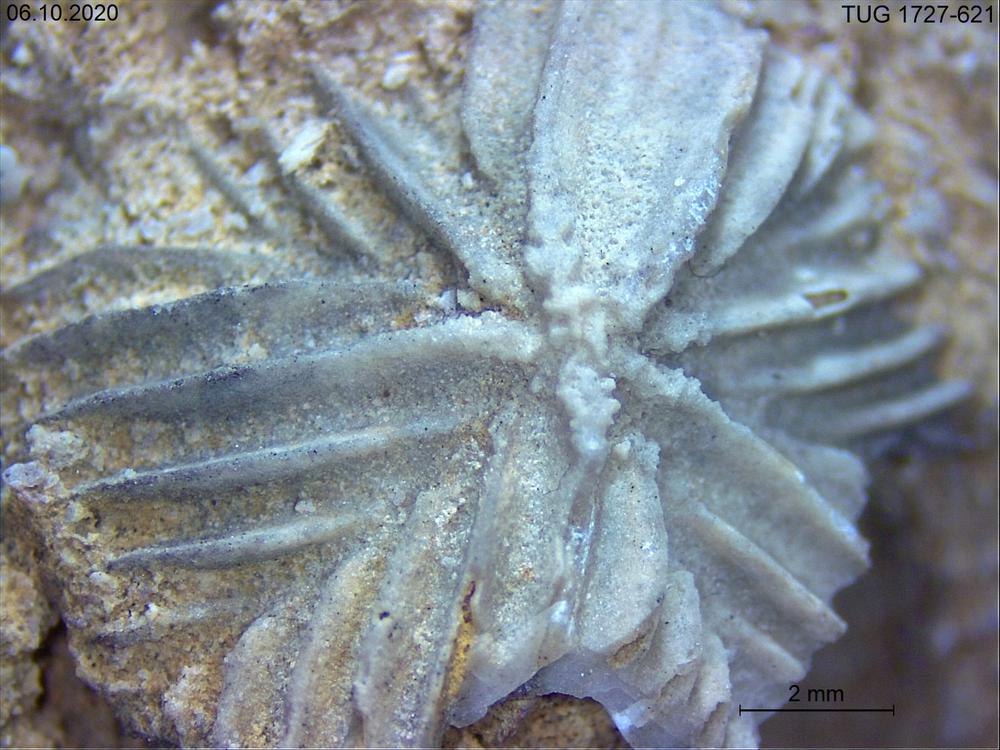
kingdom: Animalia
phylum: Echinodermata
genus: Polyptychella
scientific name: Polyptychella
